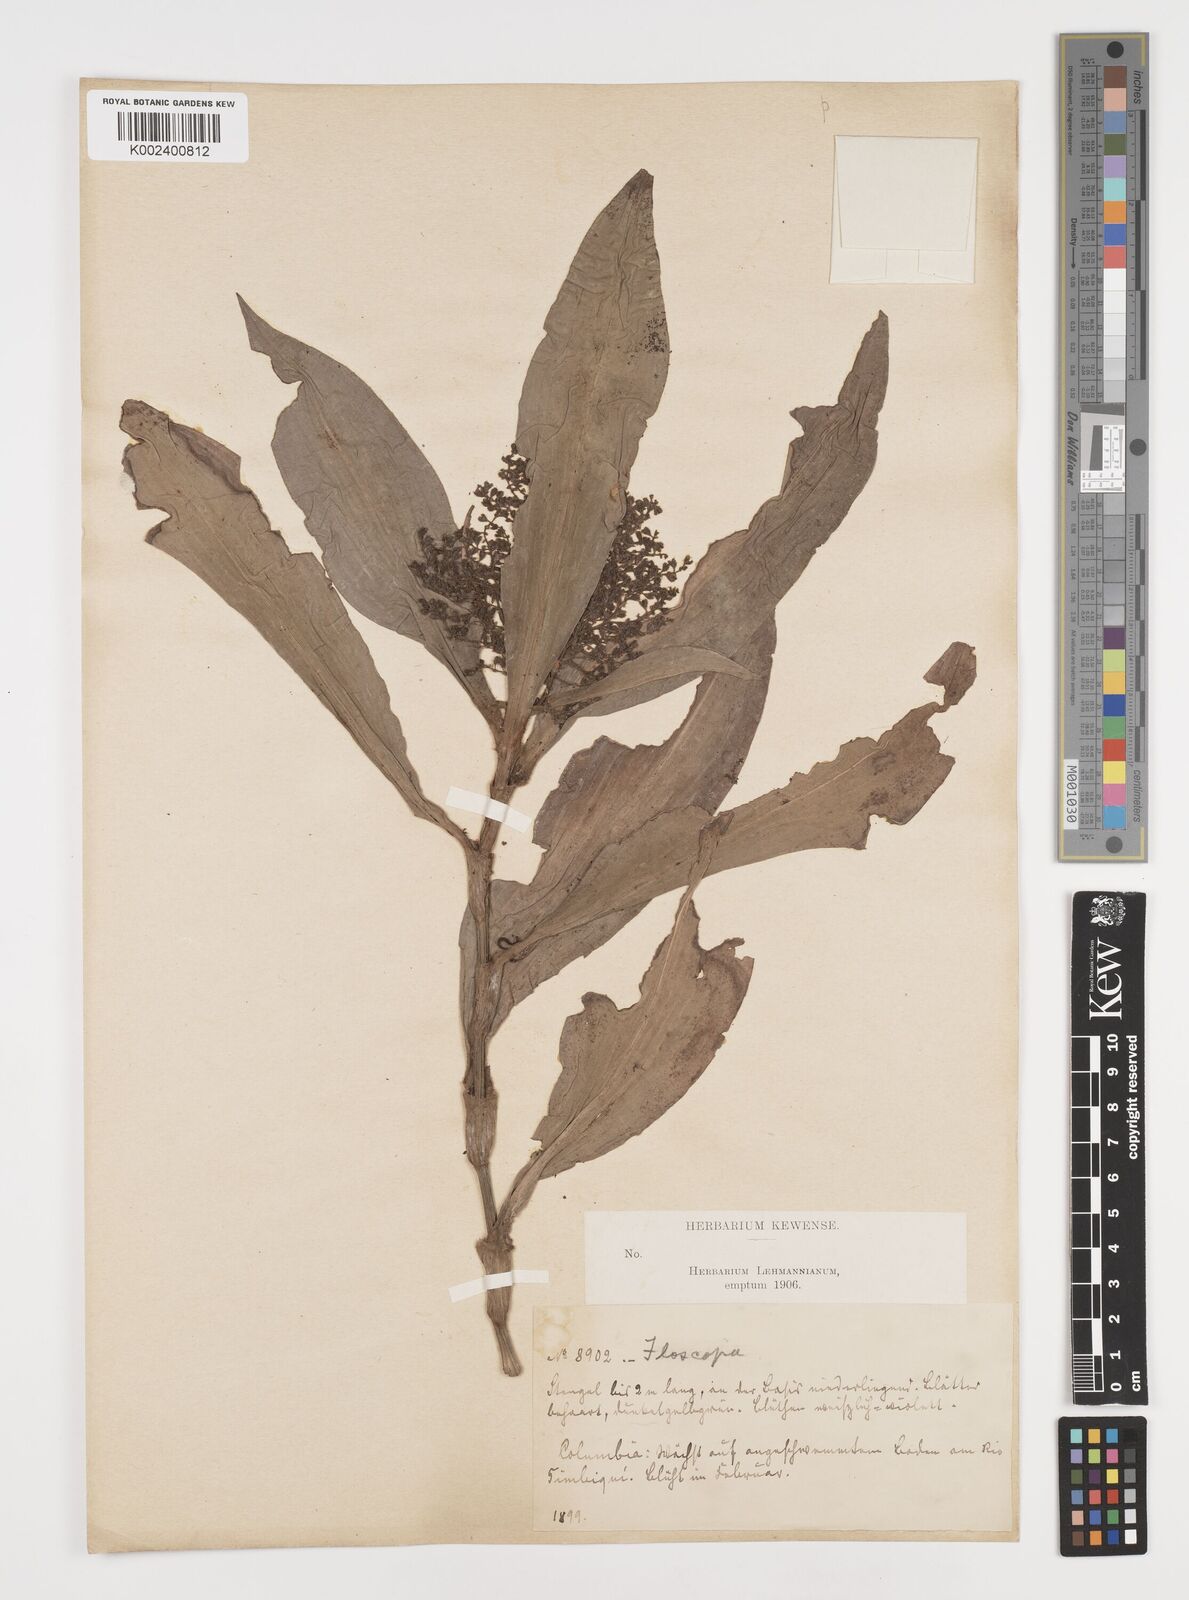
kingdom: Plantae
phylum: Tracheophyta
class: Liliopsida
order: Commelinales
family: Commelinaceae
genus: Floscopa
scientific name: Floscopa
